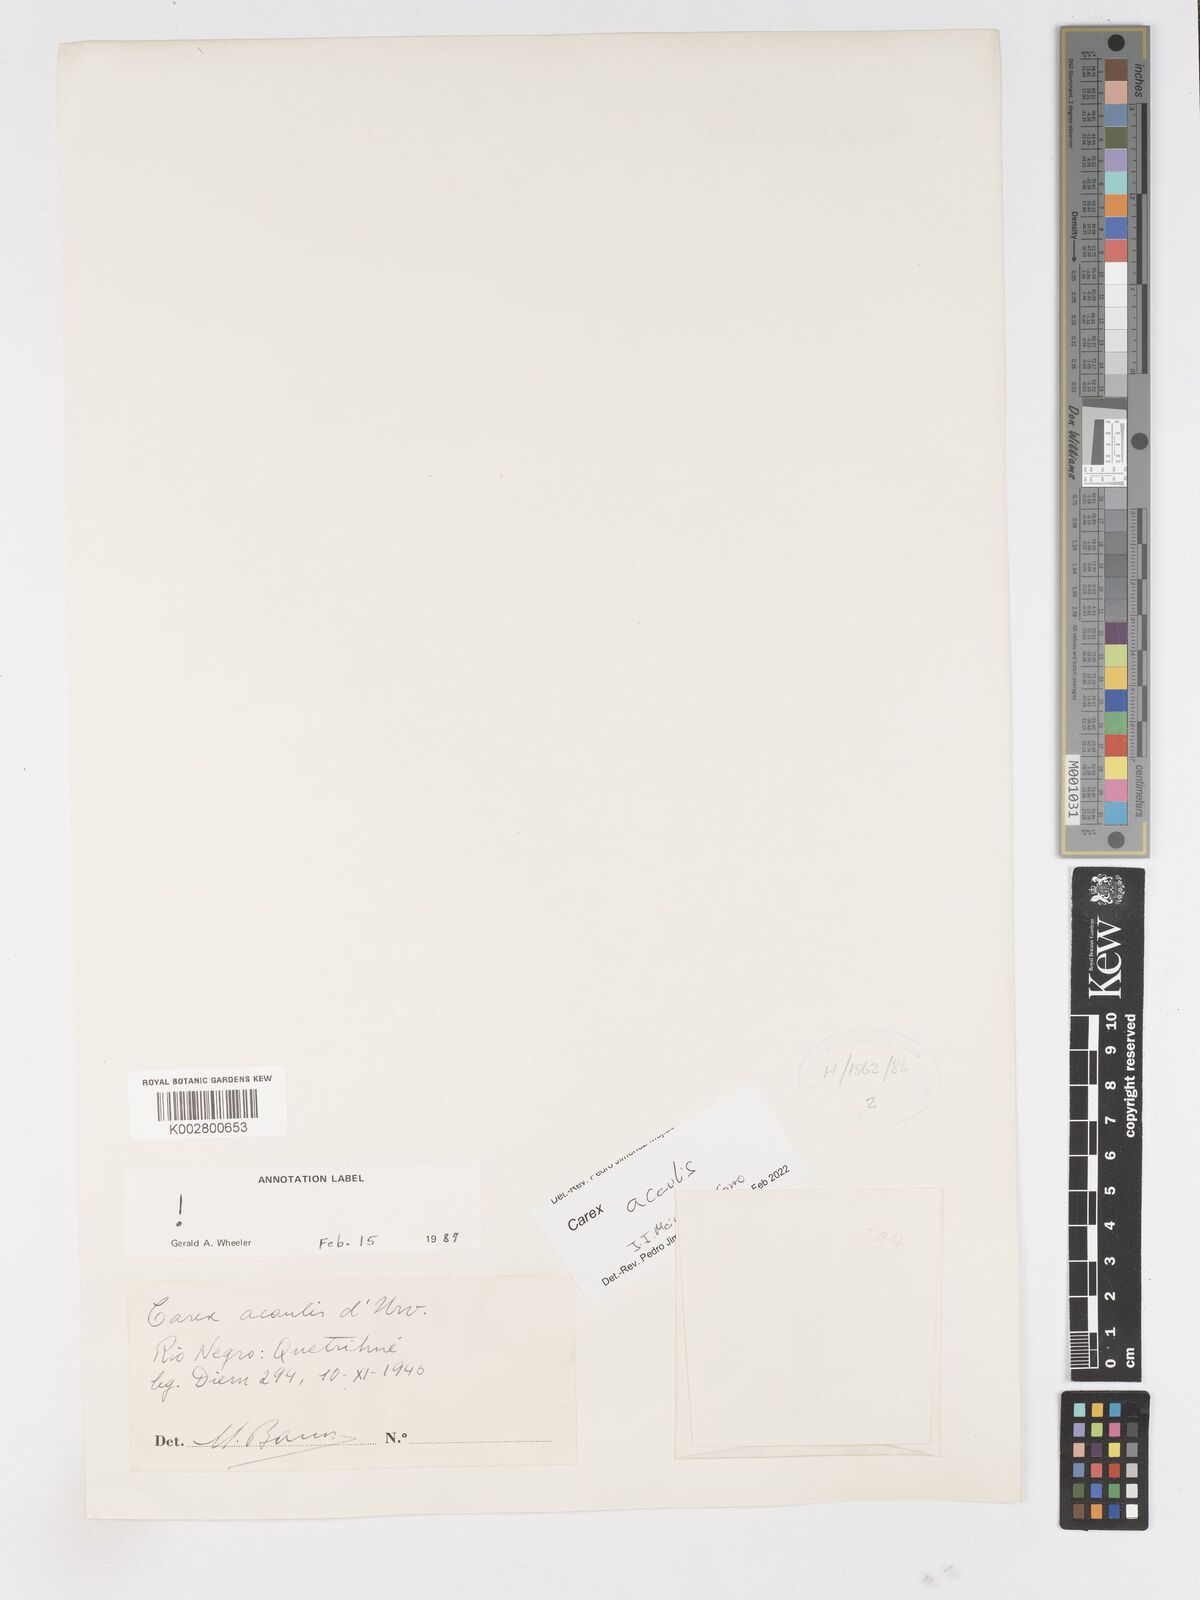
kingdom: Plantae
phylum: Tracheophyta
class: Liliopsida
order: Poales
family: Cyperaceae
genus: Carex
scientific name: Carex acaulis
